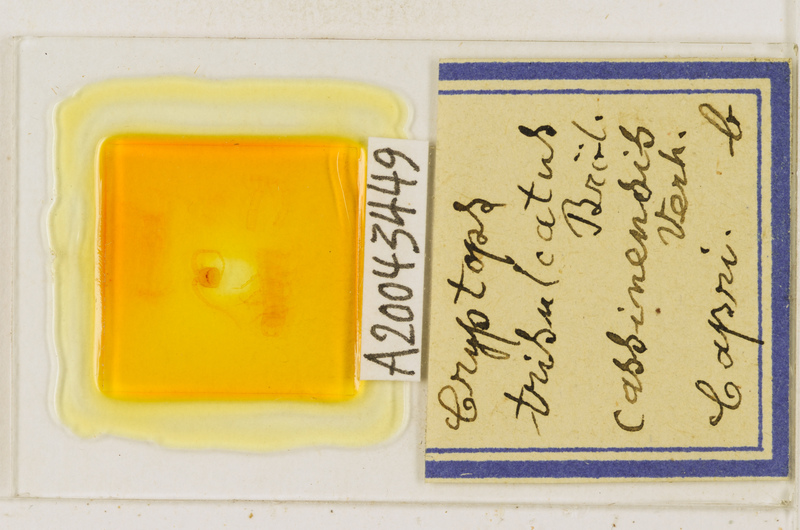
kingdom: Animalia
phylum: Arthropoda
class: Chilopoda
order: Scolopendromorpha
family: Cryptopidae
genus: Cryptops
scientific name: Cryptops trisulcatus
